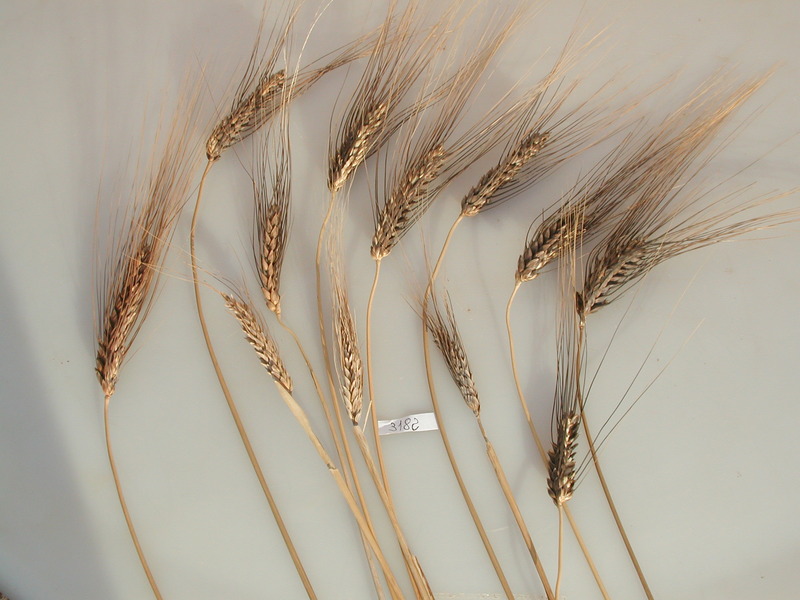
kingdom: Plantae
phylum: Tracheophyta
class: Liliopsida
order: Poales
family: Poaceae
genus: Triticum
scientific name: Triticum turgidum
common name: Wheat
